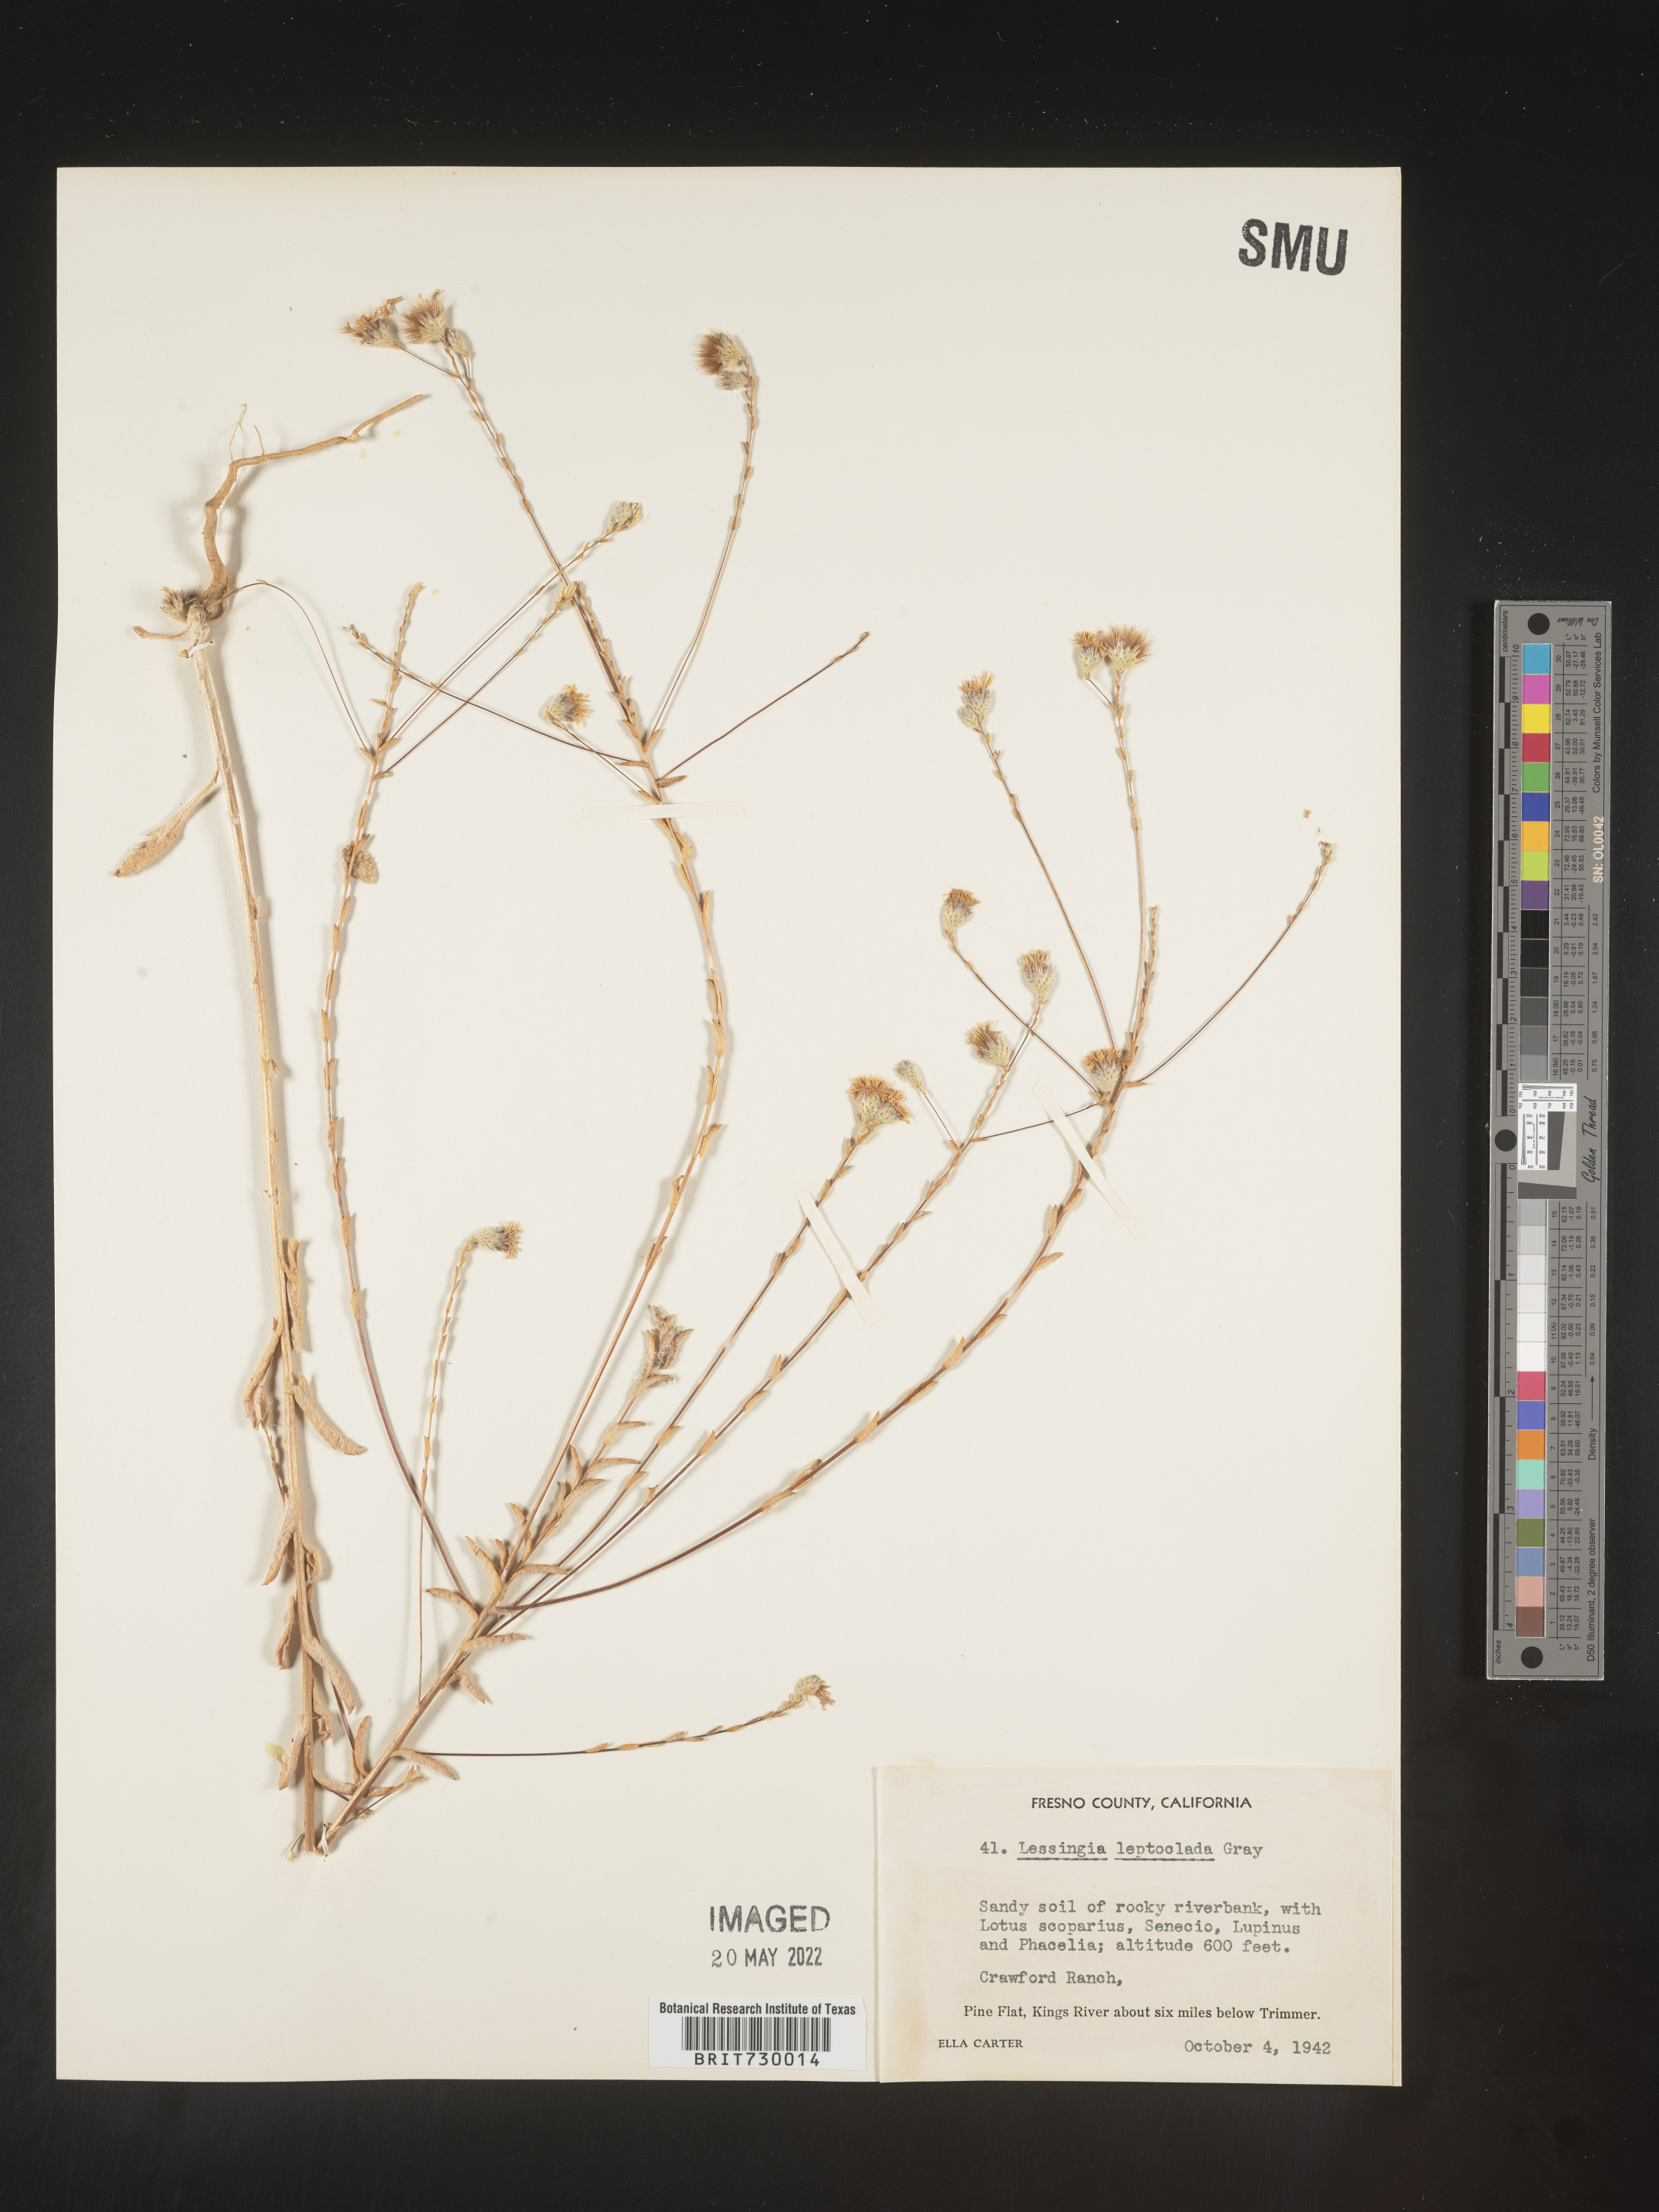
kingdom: Plantae
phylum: Tracheophyta
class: Magnoliopsida
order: Asterales
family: Asteraceae
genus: Lessingia
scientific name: Lessingia
